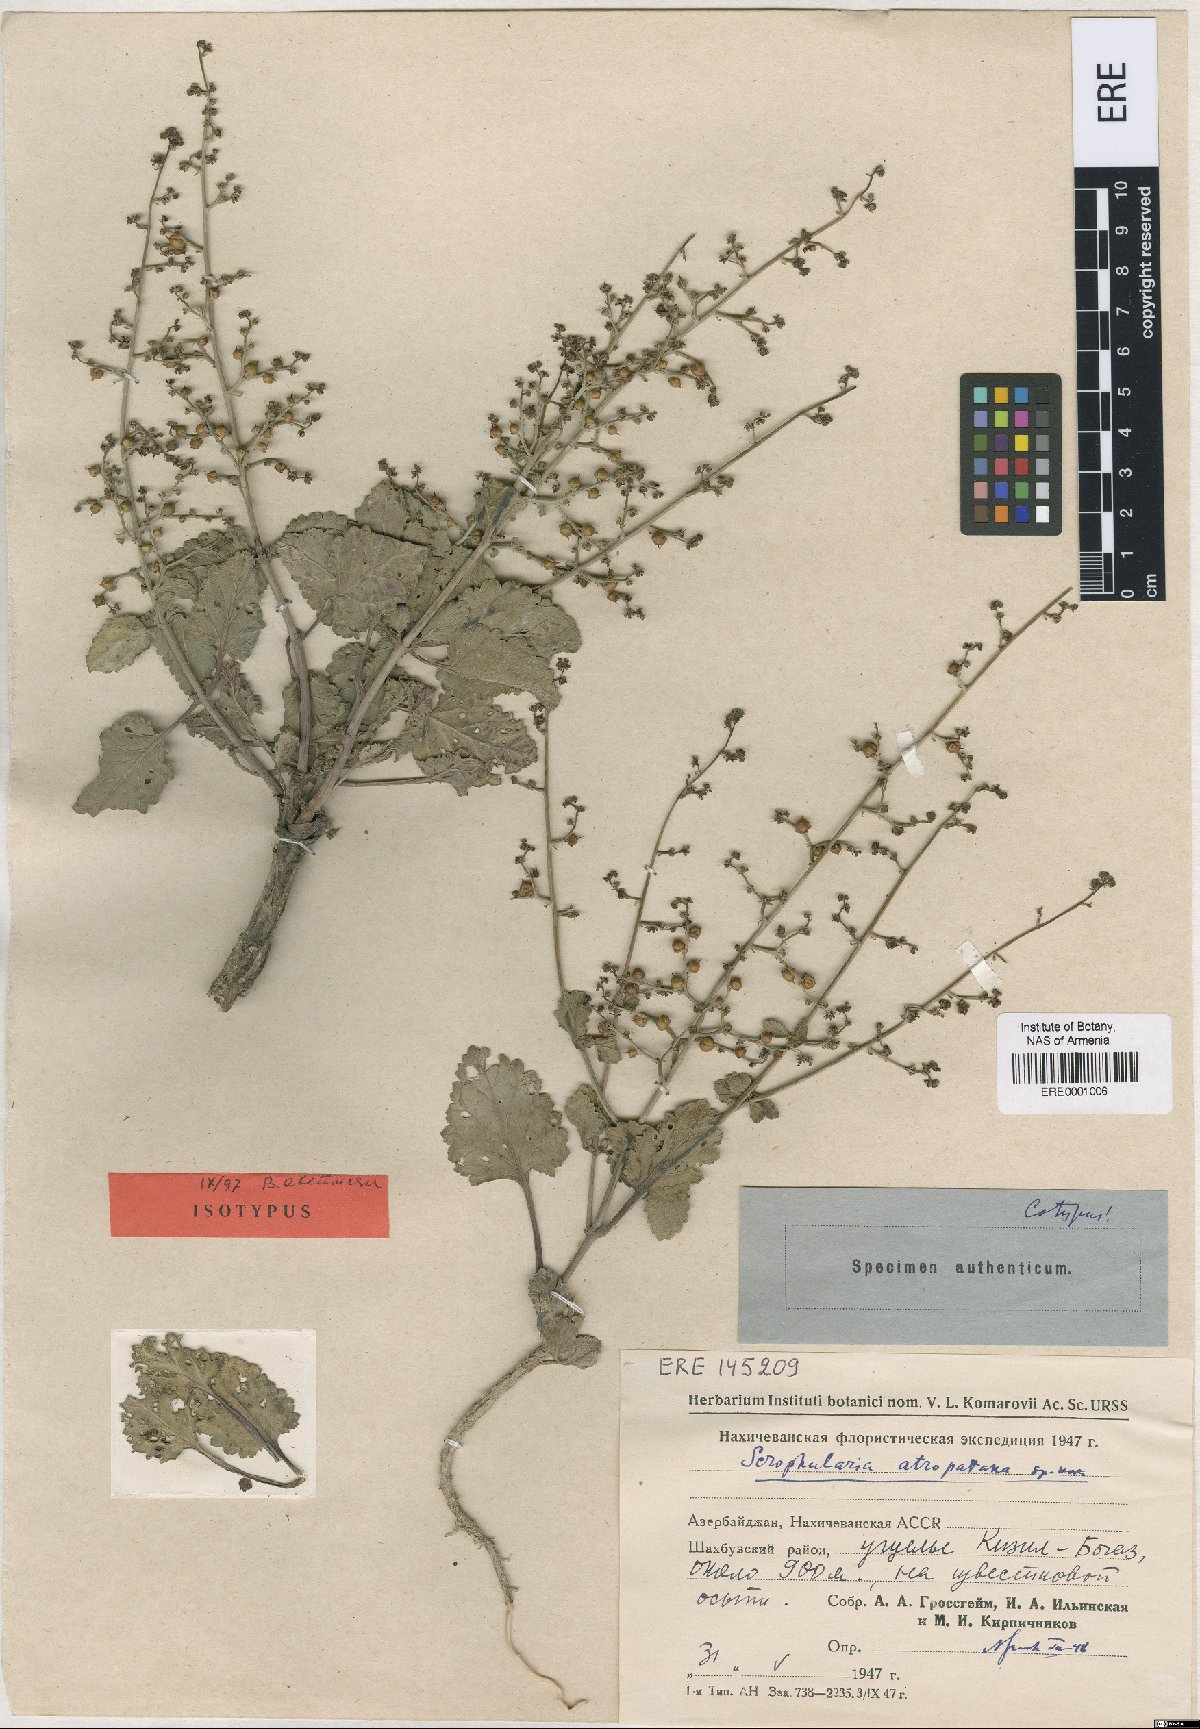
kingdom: Plantae
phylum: Tracheophyta
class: Magnoliopsida
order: Lamiales
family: Scrophulariaceae
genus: Scrophularia
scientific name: Scrophularia atropatana
